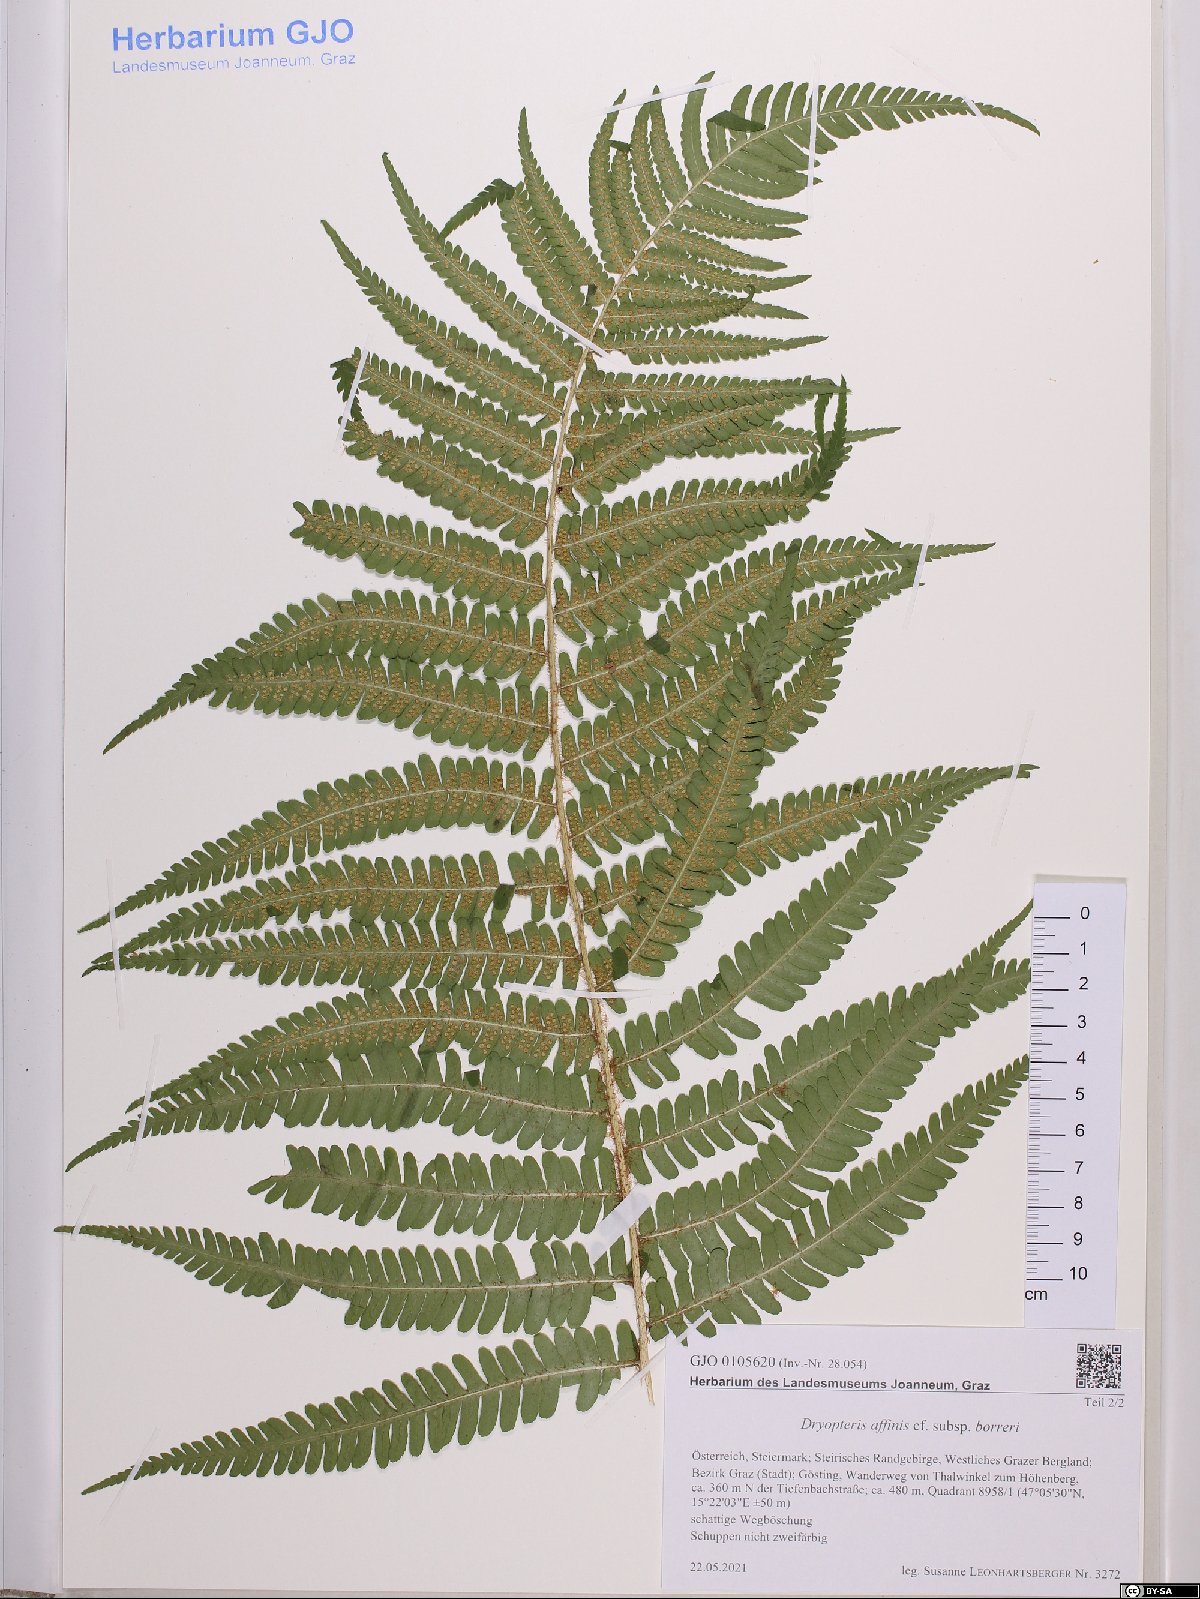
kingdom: Plantae
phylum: Tracheophyta
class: Polypodiopsida
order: Polypodiales
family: Dryopteridaceae
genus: Dryopteris
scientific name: Dryopteris borreri
